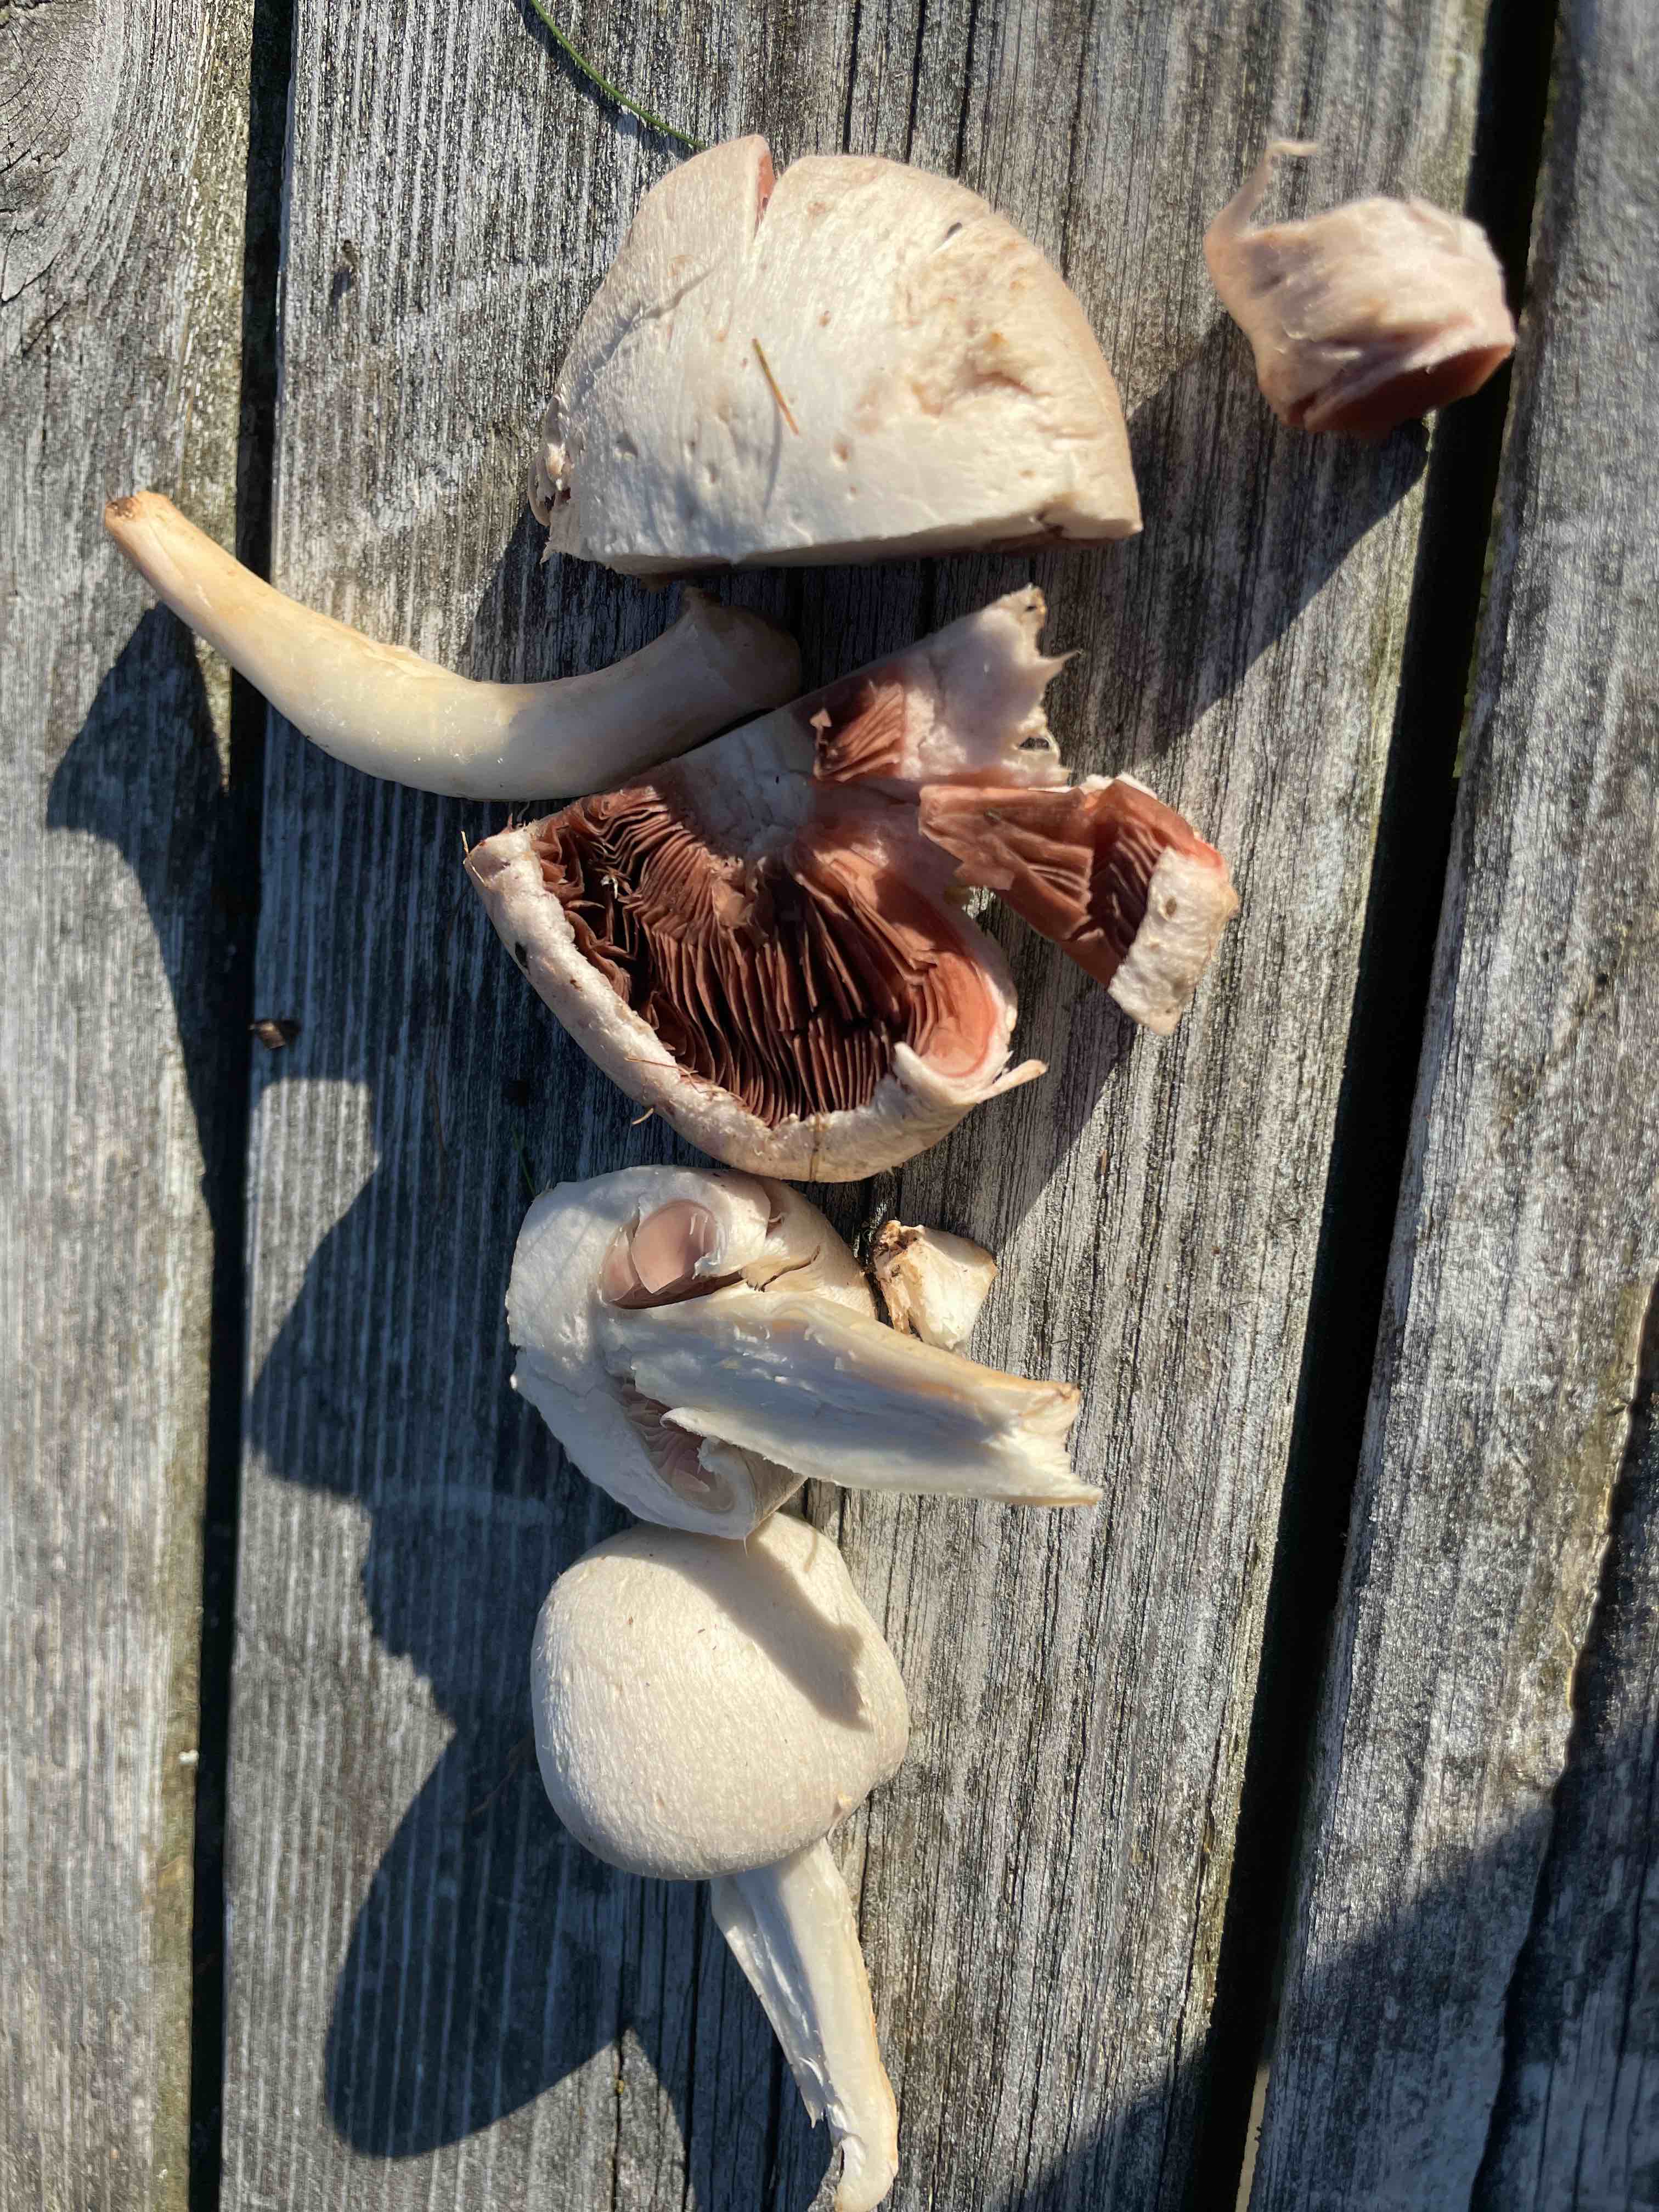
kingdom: Fungi
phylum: Basidiomycota
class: Agaricomycetes
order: Agaricales
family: Agaricaceae
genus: Agaricus
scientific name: Agaricus
